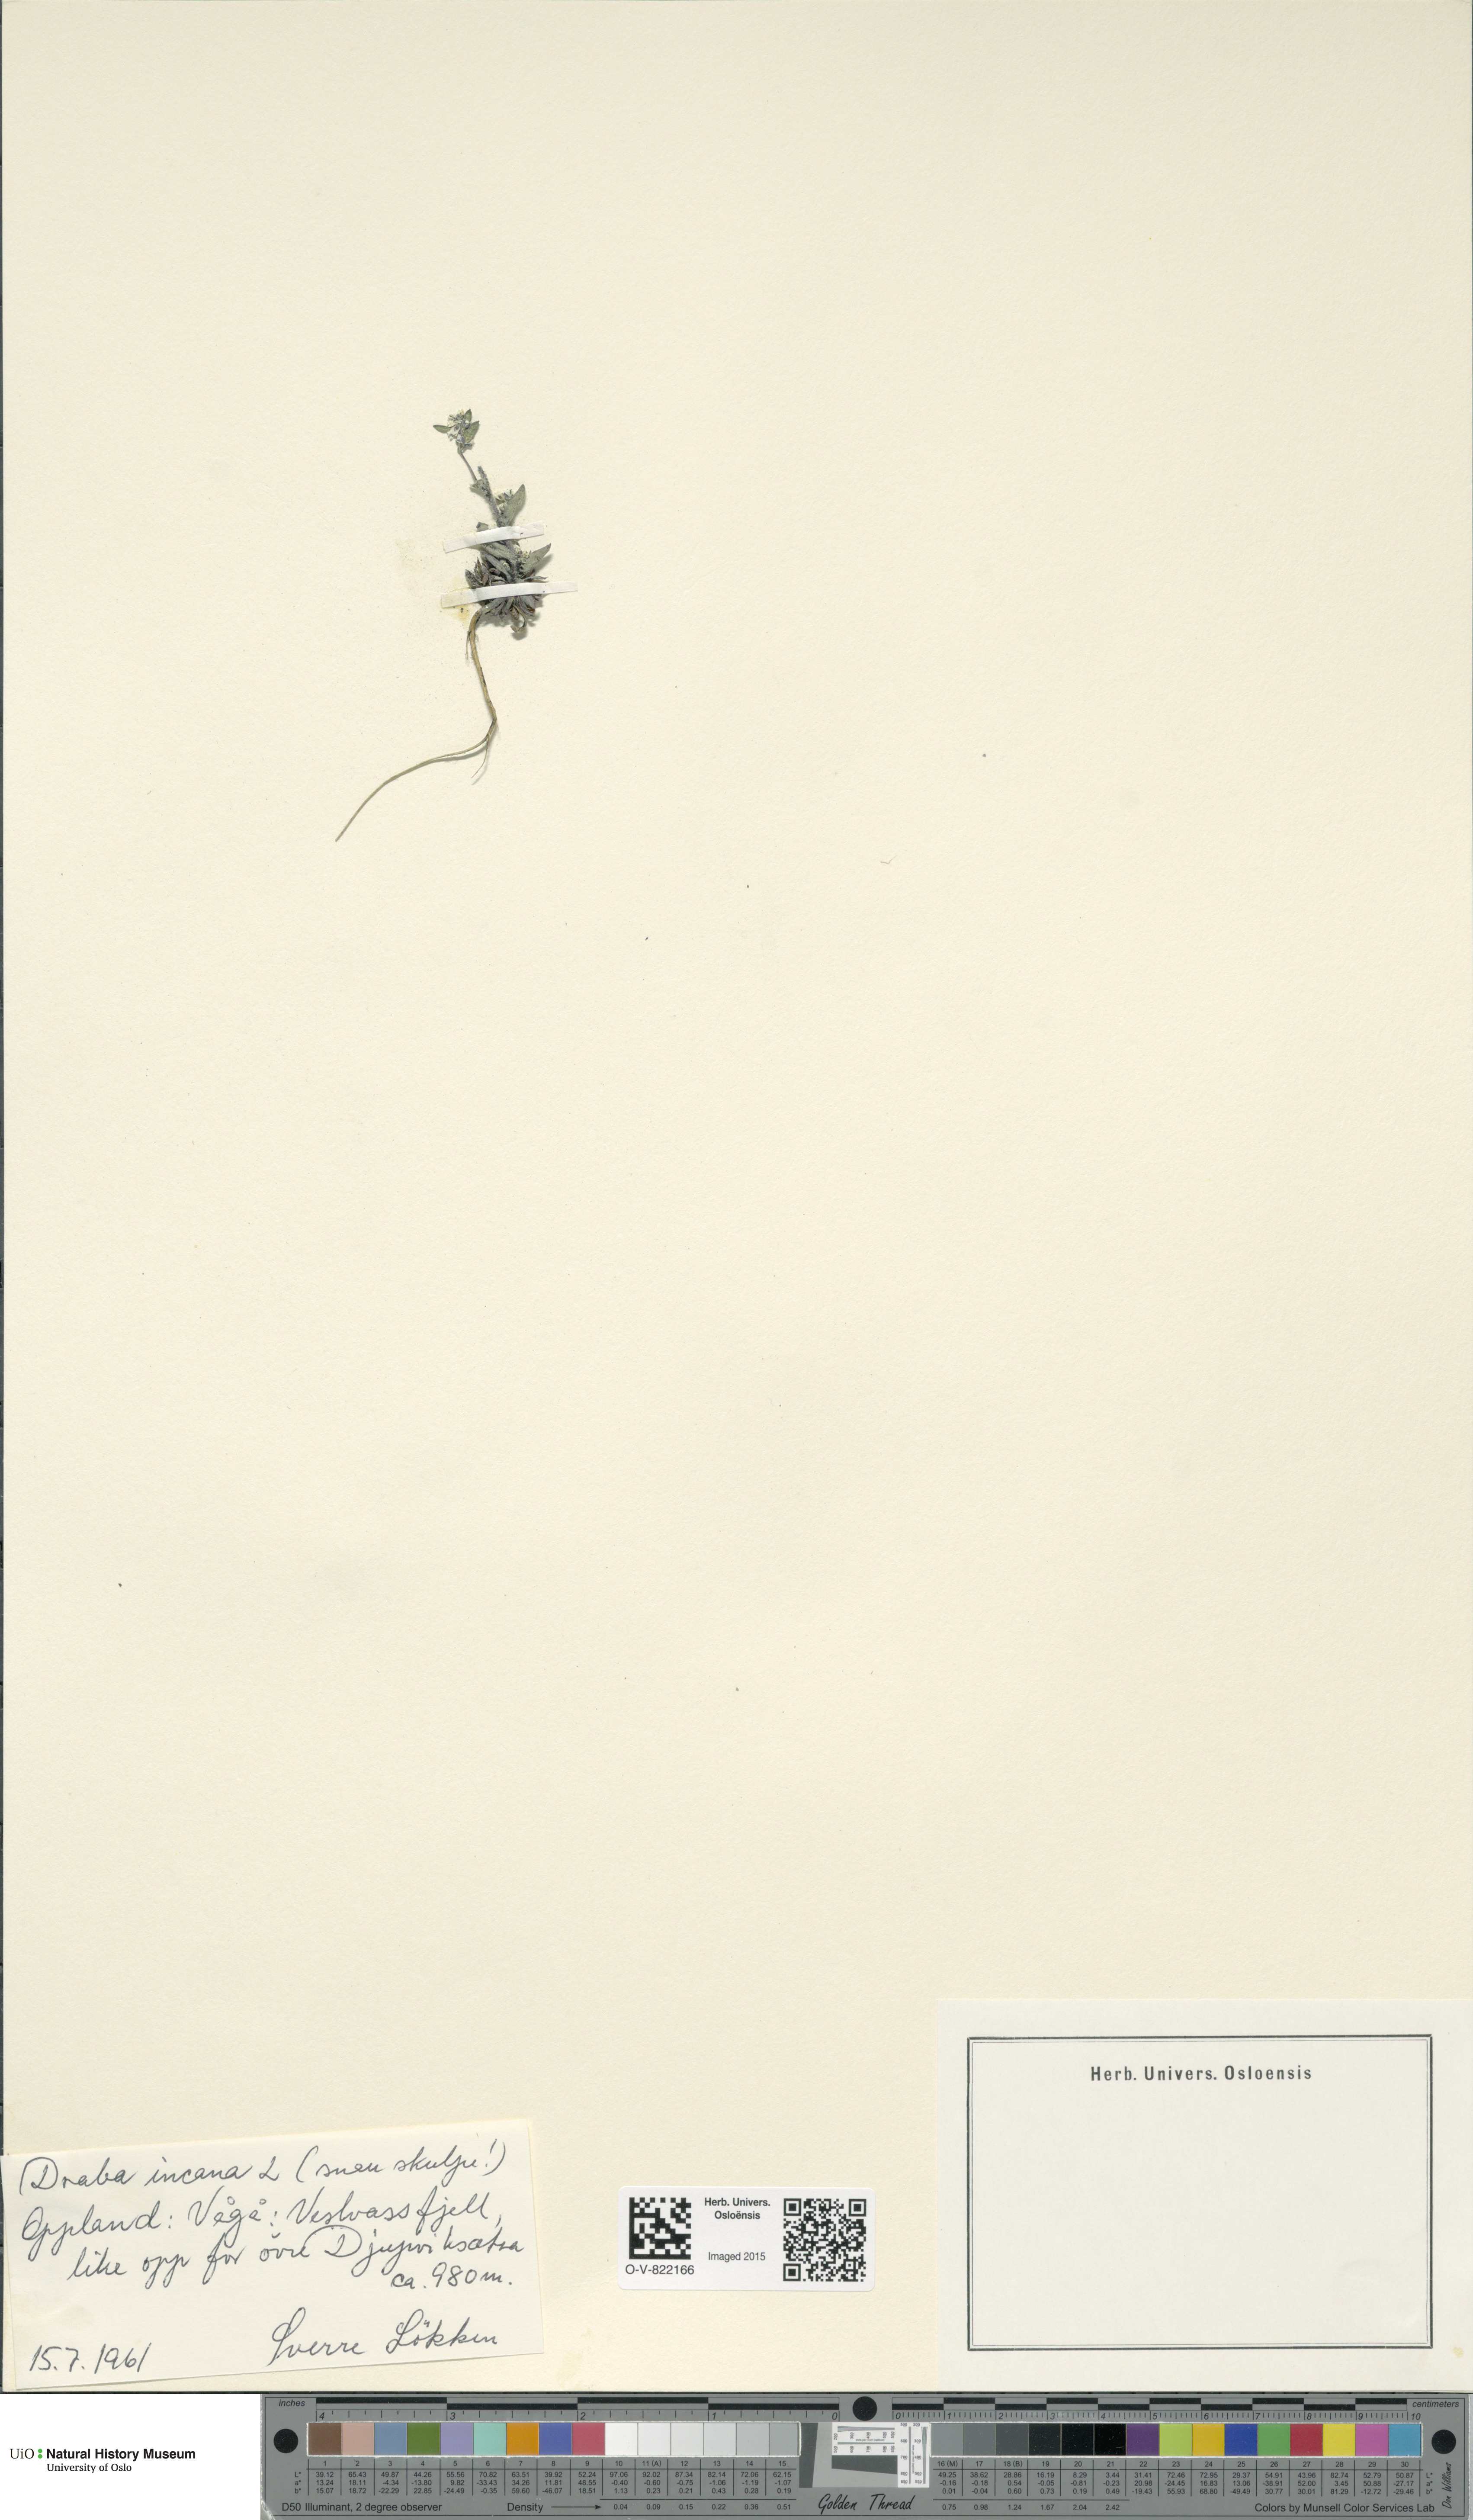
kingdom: Plantae
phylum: Tracheophyta
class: Magnoliopsida
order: Brassicales
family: Brassicaceae
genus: Draba
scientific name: Draba incana
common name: Hoary whitlow-grass
